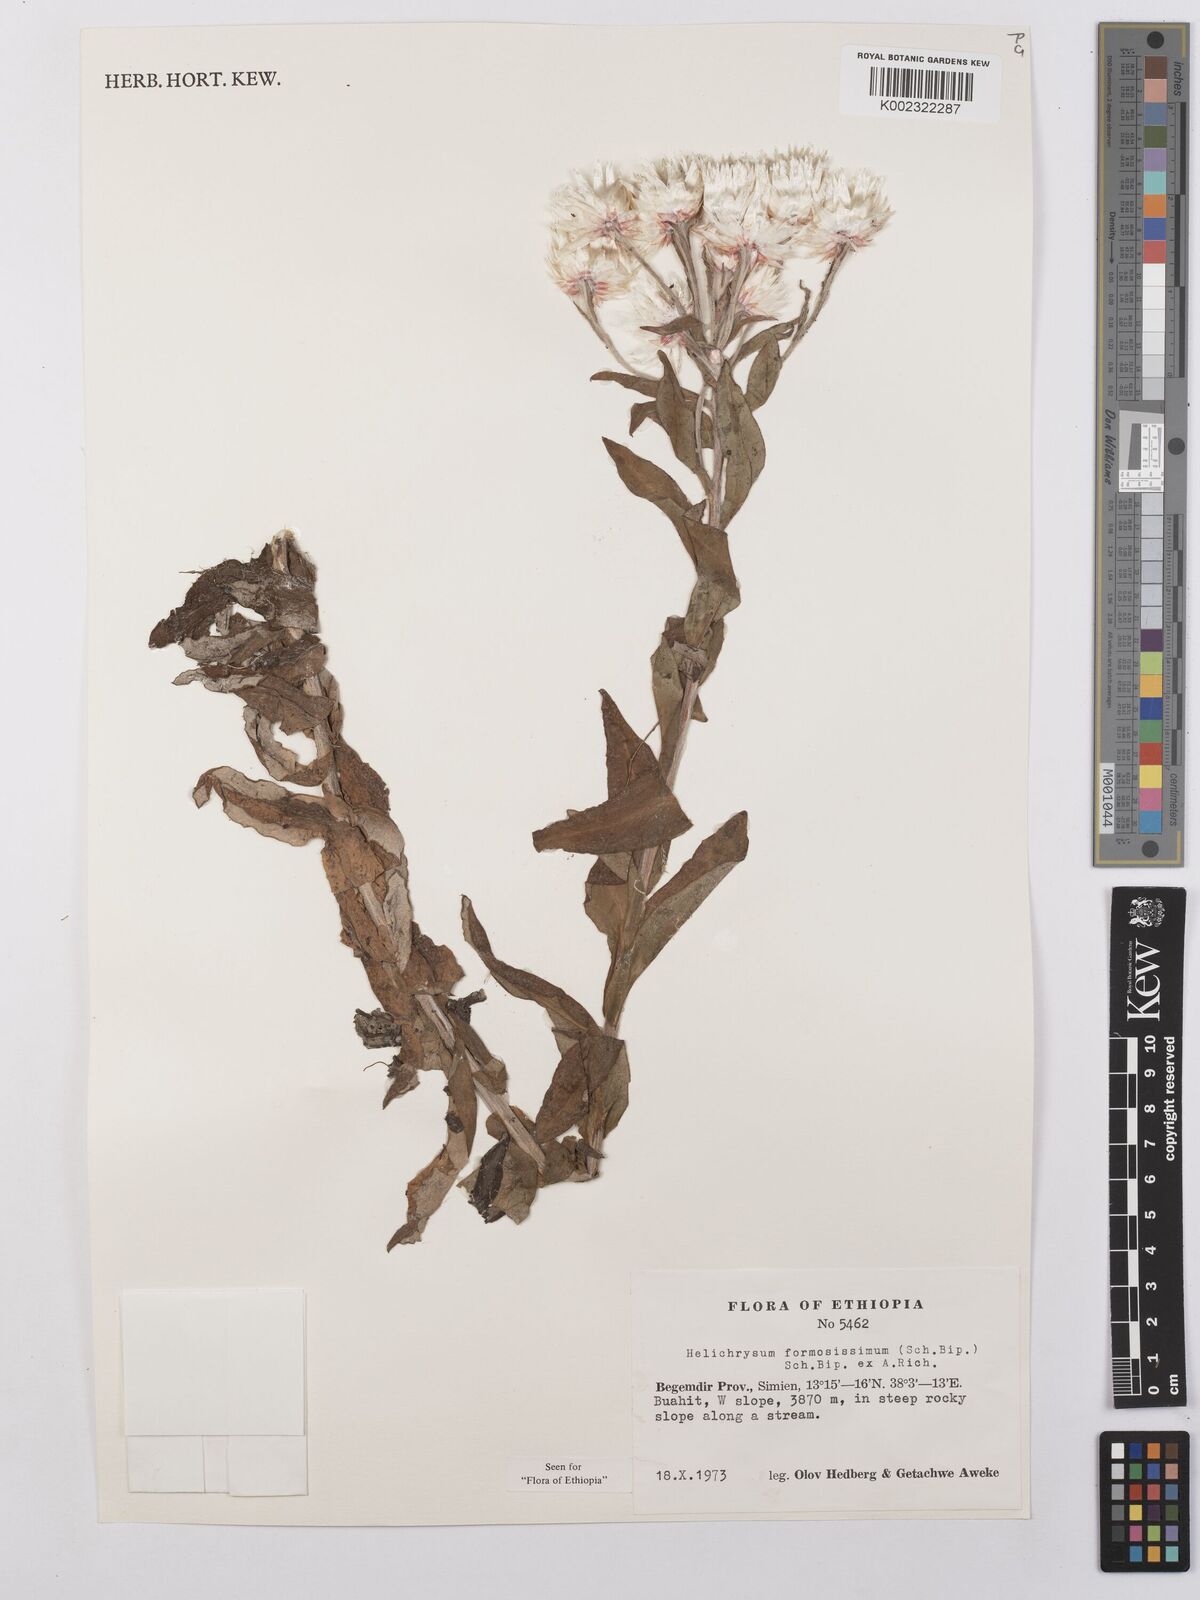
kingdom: Plantae
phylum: Tracheophyta
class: Magnoliopsida
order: Asterales
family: Asteraceae
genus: Helichrysum
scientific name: Helichrysum formosissimum
